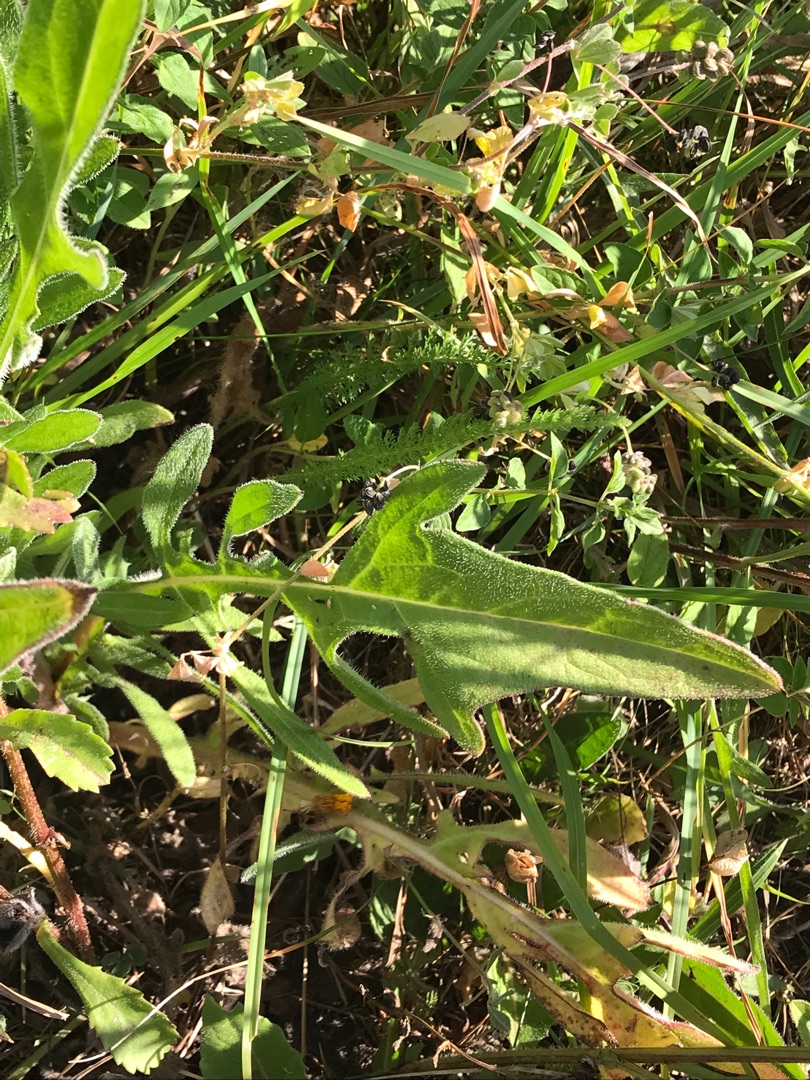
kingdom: Plantae
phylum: Tracheophyta
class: Magnoliopsida
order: Asterales
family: Asteraceae
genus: Crepis
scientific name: Crepis biennis
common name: Toårig høgeskæg
